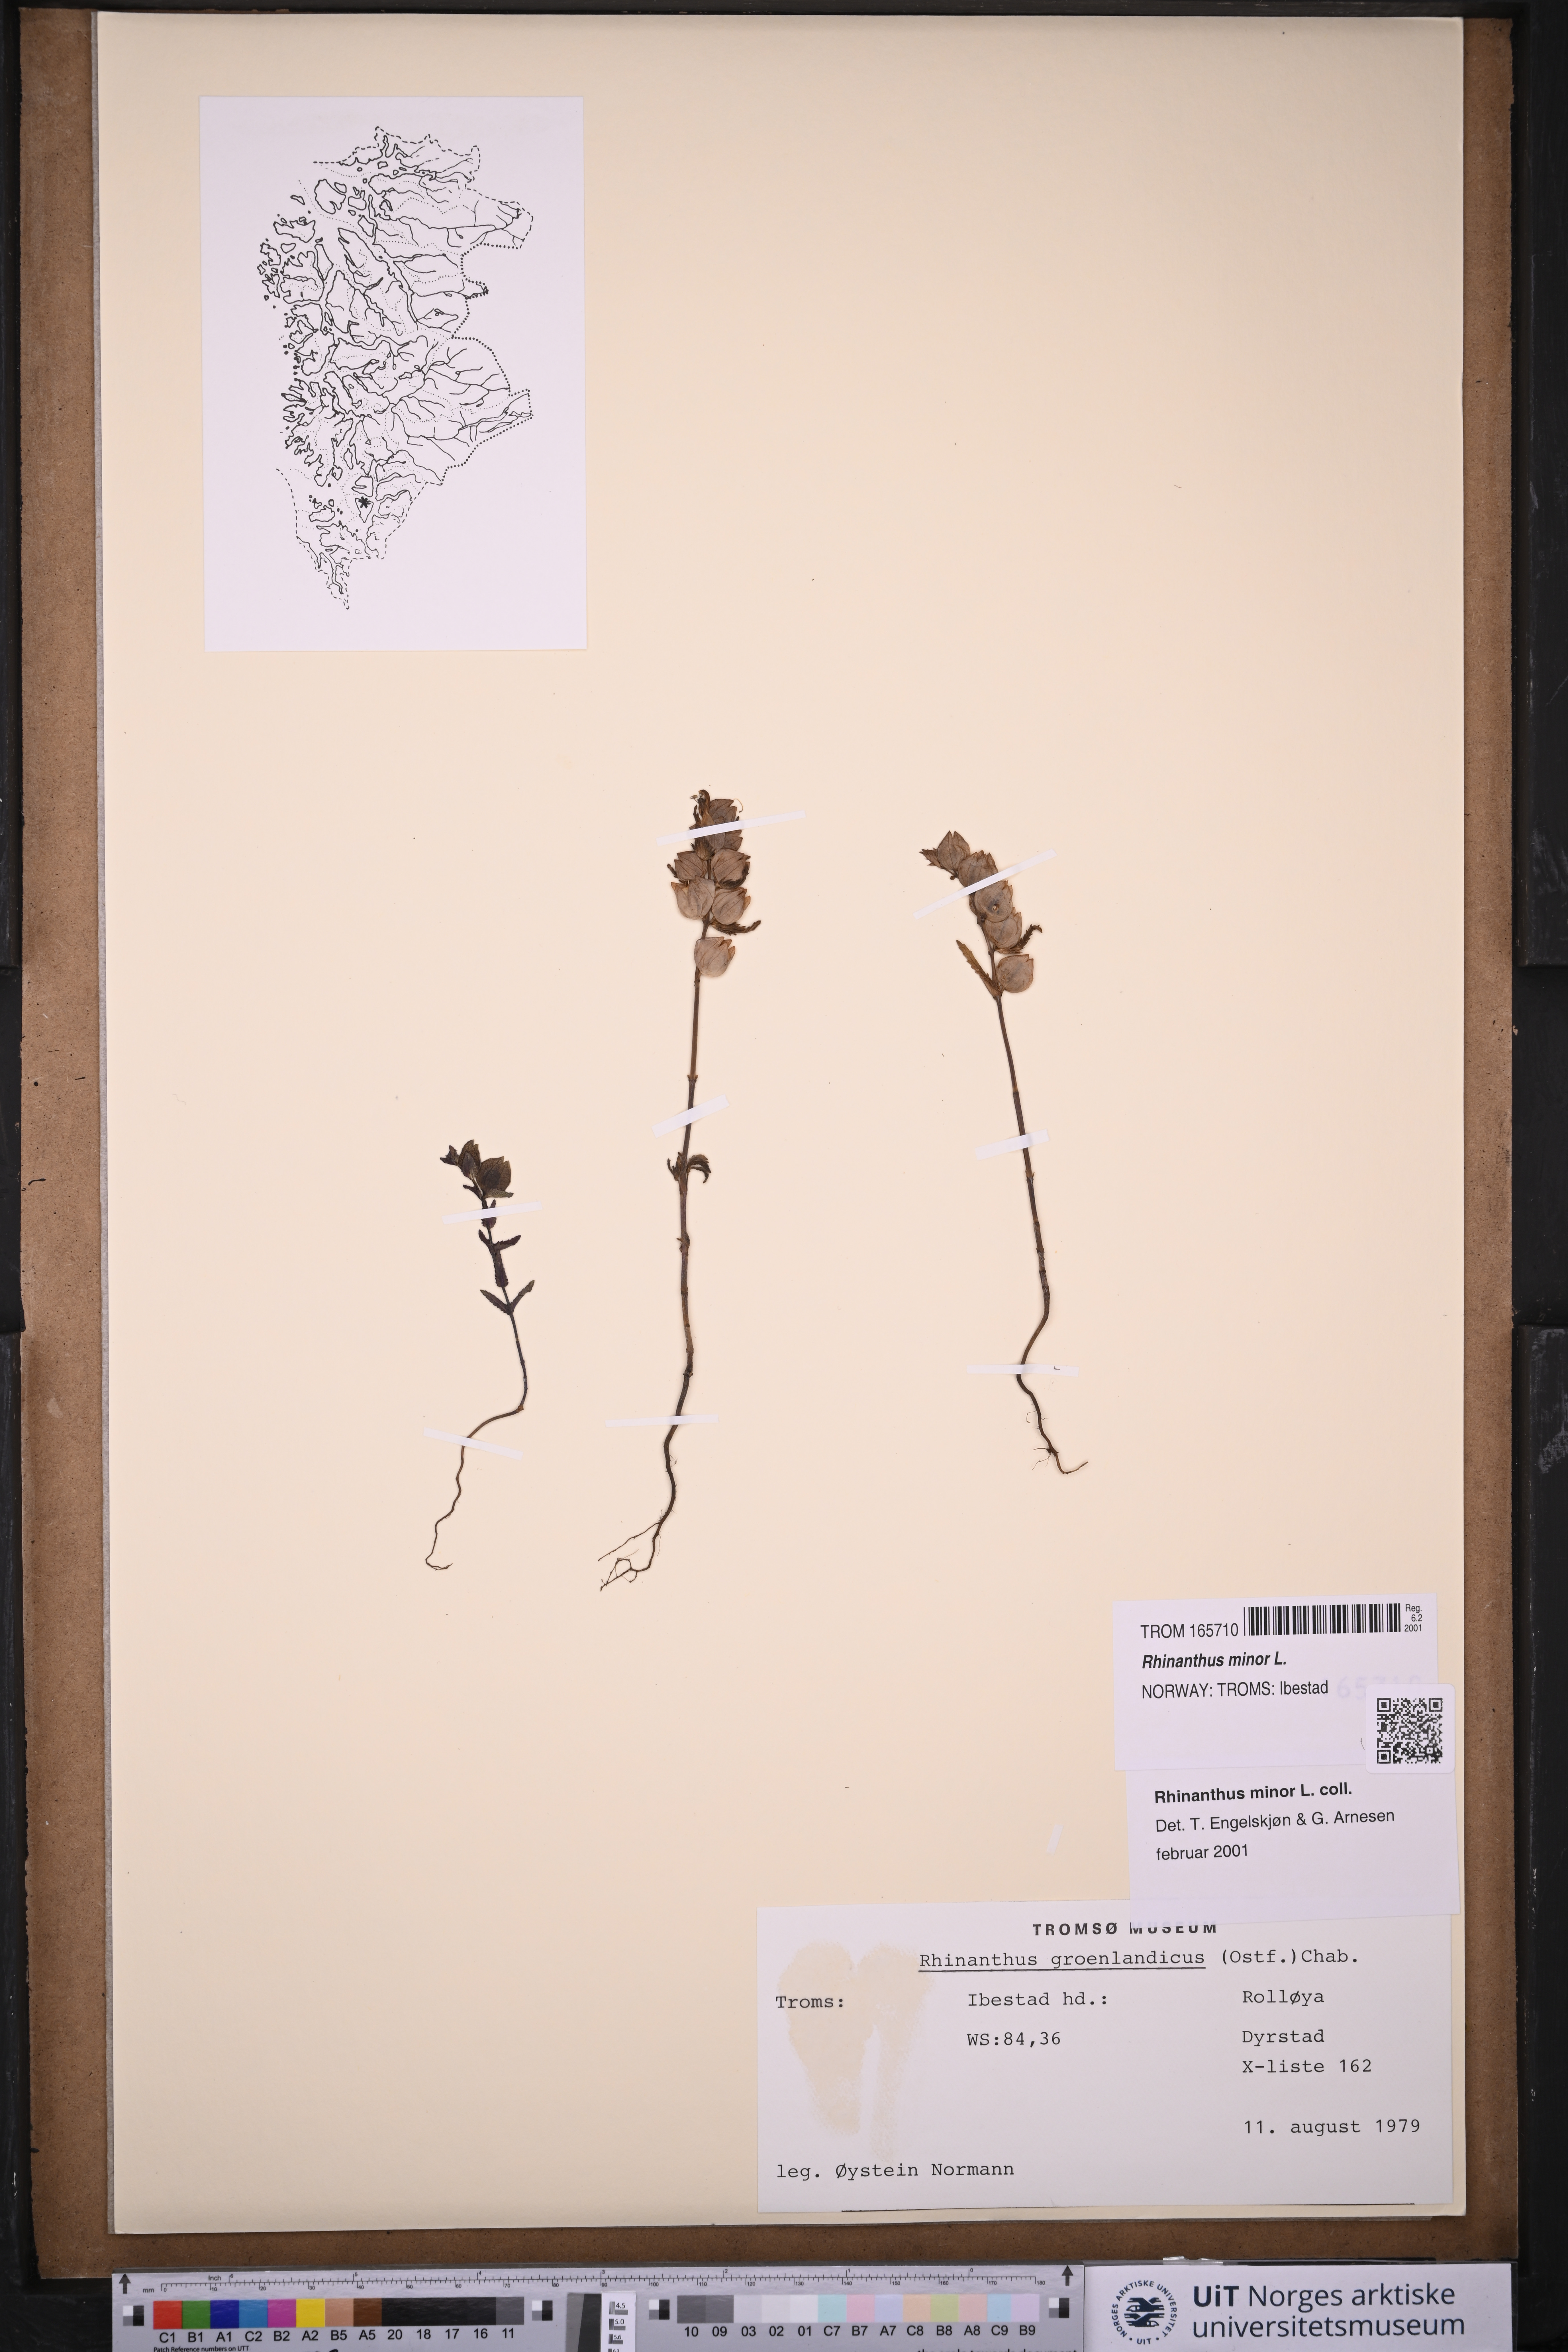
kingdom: Plantae
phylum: Tracheophyta
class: Magnoliopsida
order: Lamiales
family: Orobanchaceae
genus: Rhinanthus
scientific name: Rhinanthus minor
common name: Yellow-rattle
